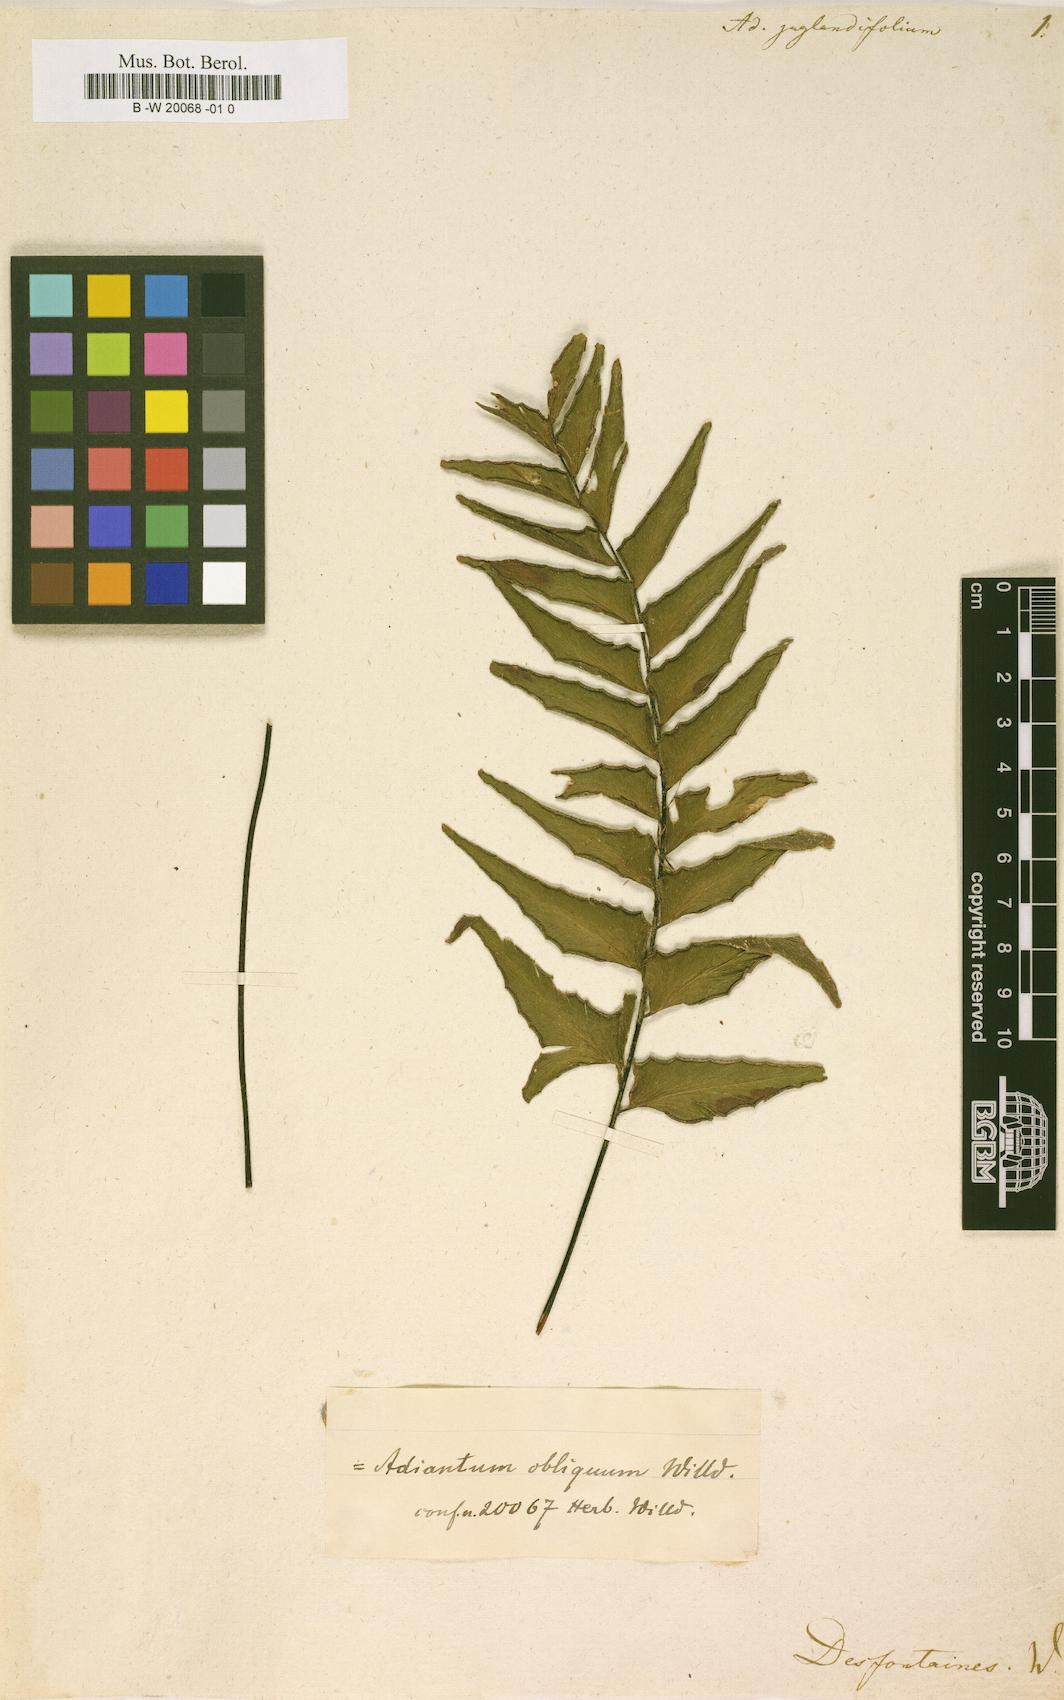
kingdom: Plantae
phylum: Tracheophyta
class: Polypodiopsida
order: Polypodiales
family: Pteridaceae
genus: Adiantum
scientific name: Adiantum
